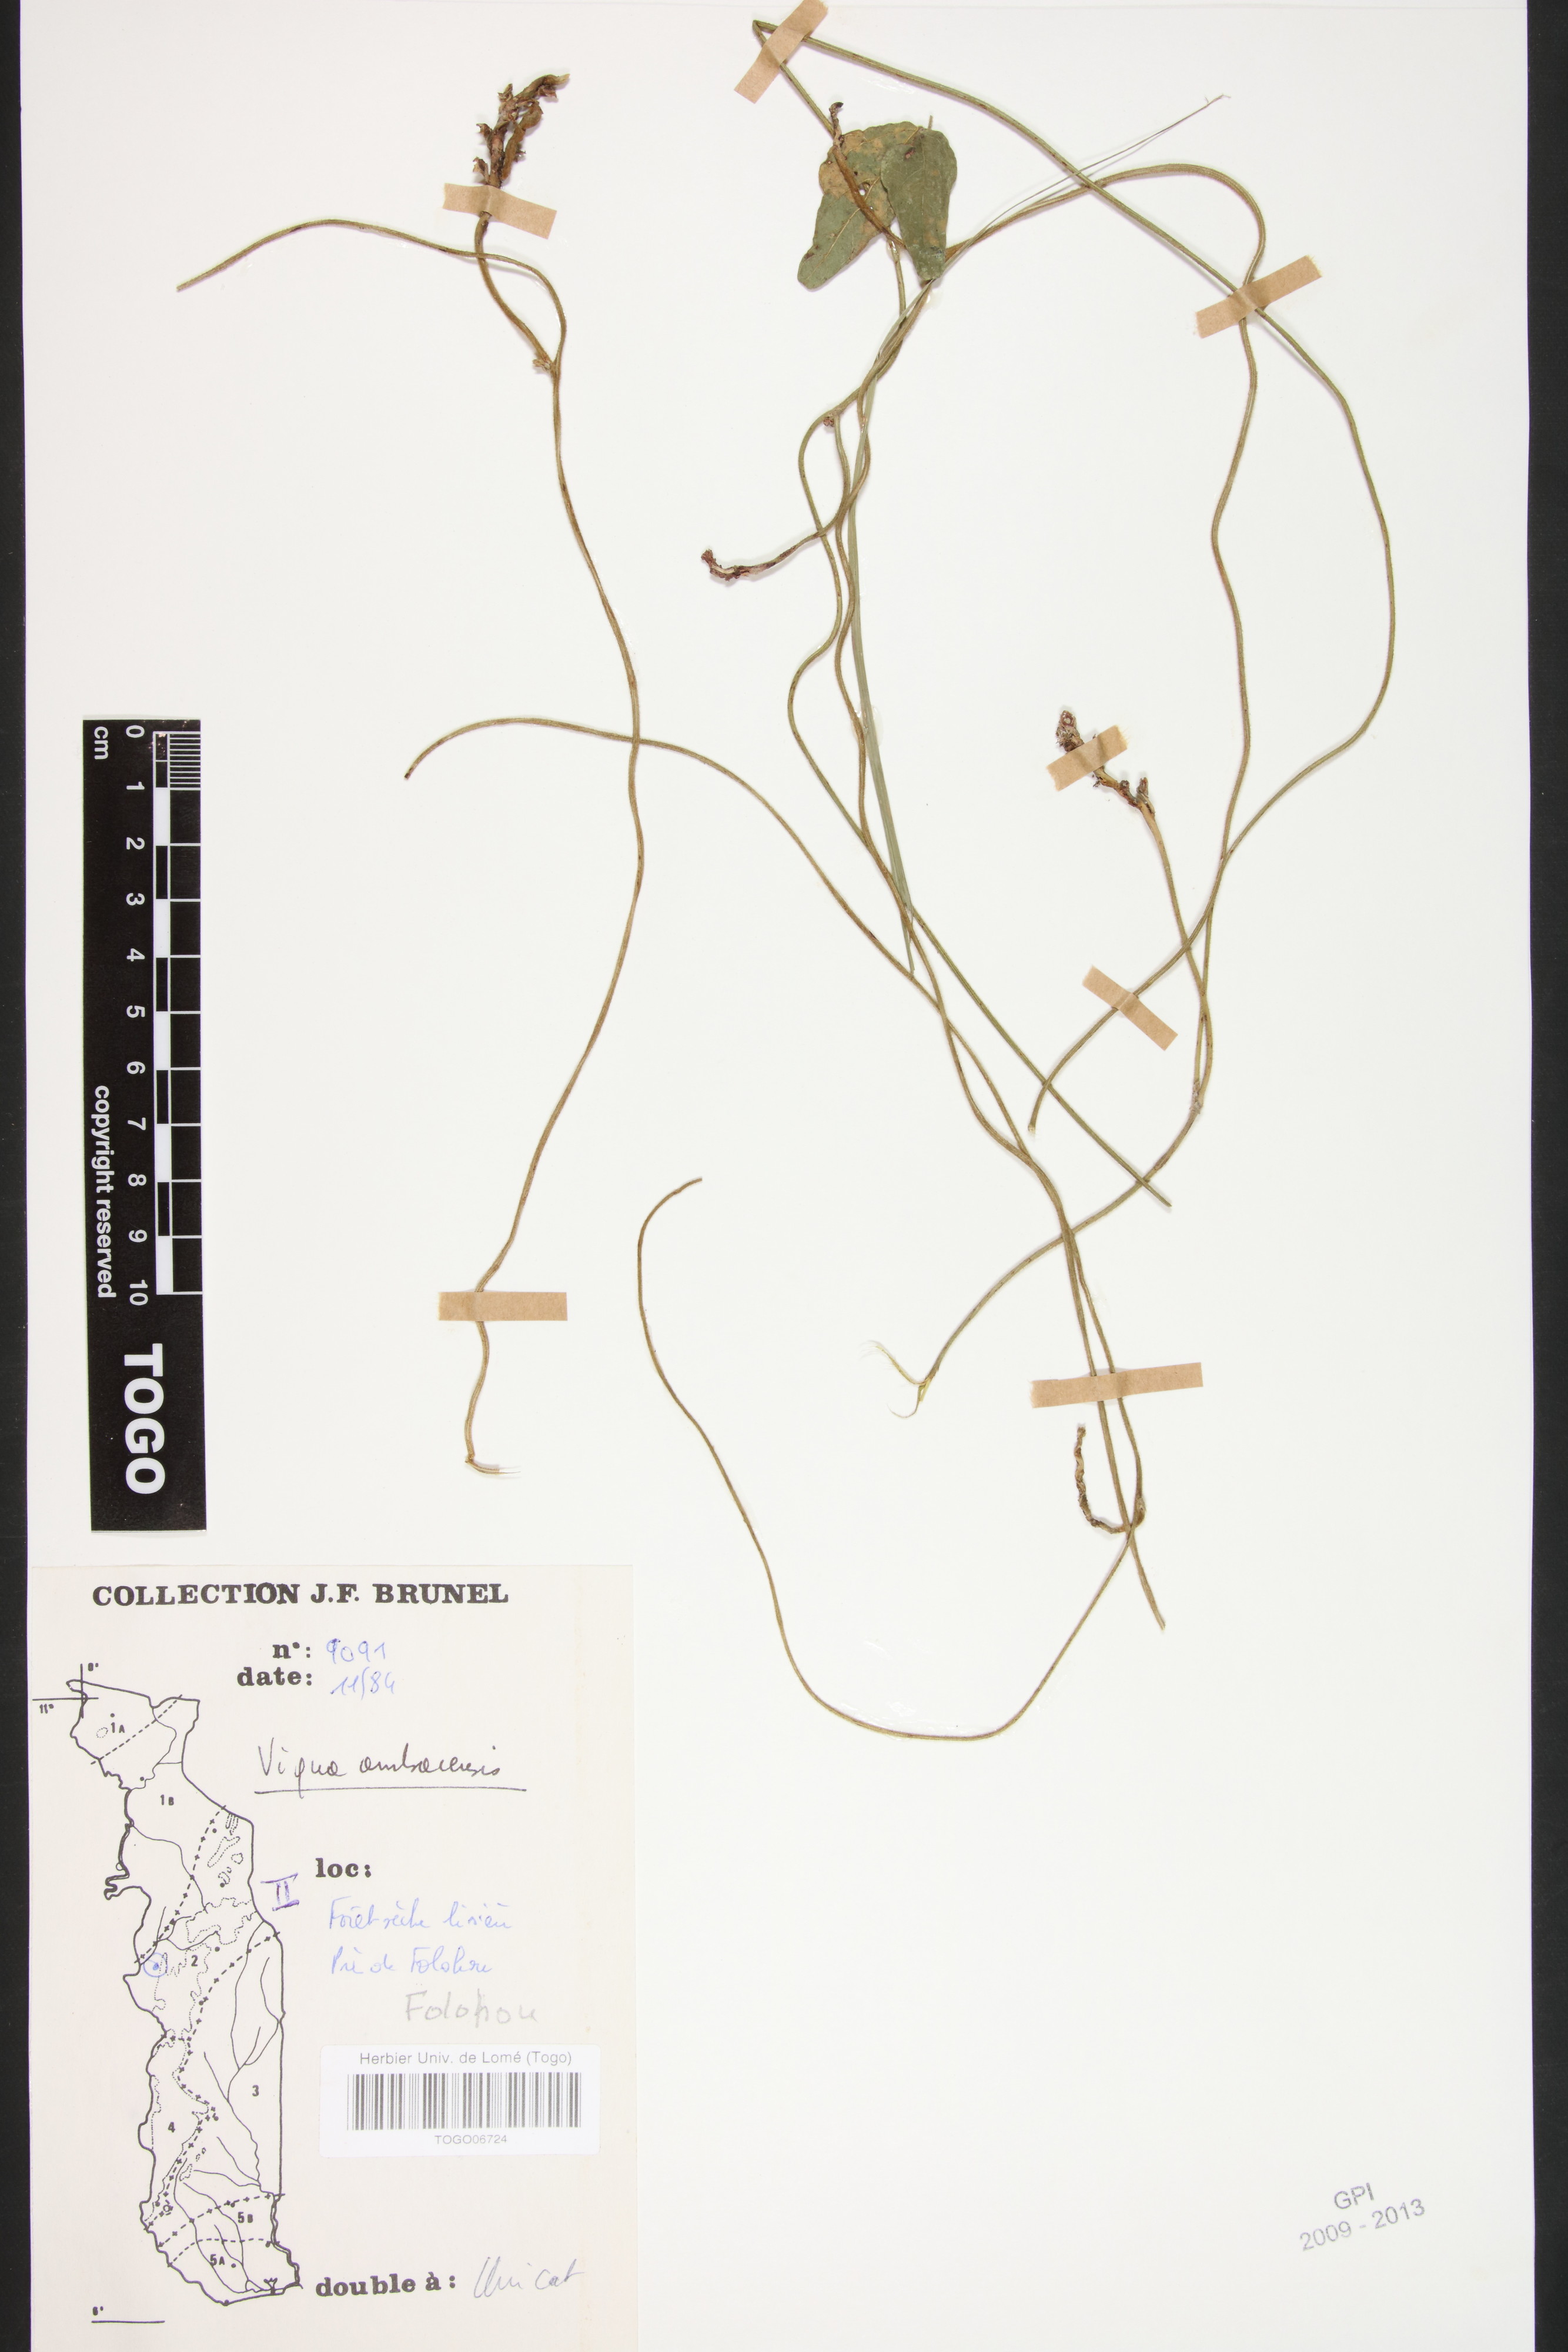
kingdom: Plantae
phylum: Tracheophyta
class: Magnoliopsida
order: Fabales
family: Fabaceae
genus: Vigna
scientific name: Vigna ambacensis
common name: Tsarkiyan zomo
